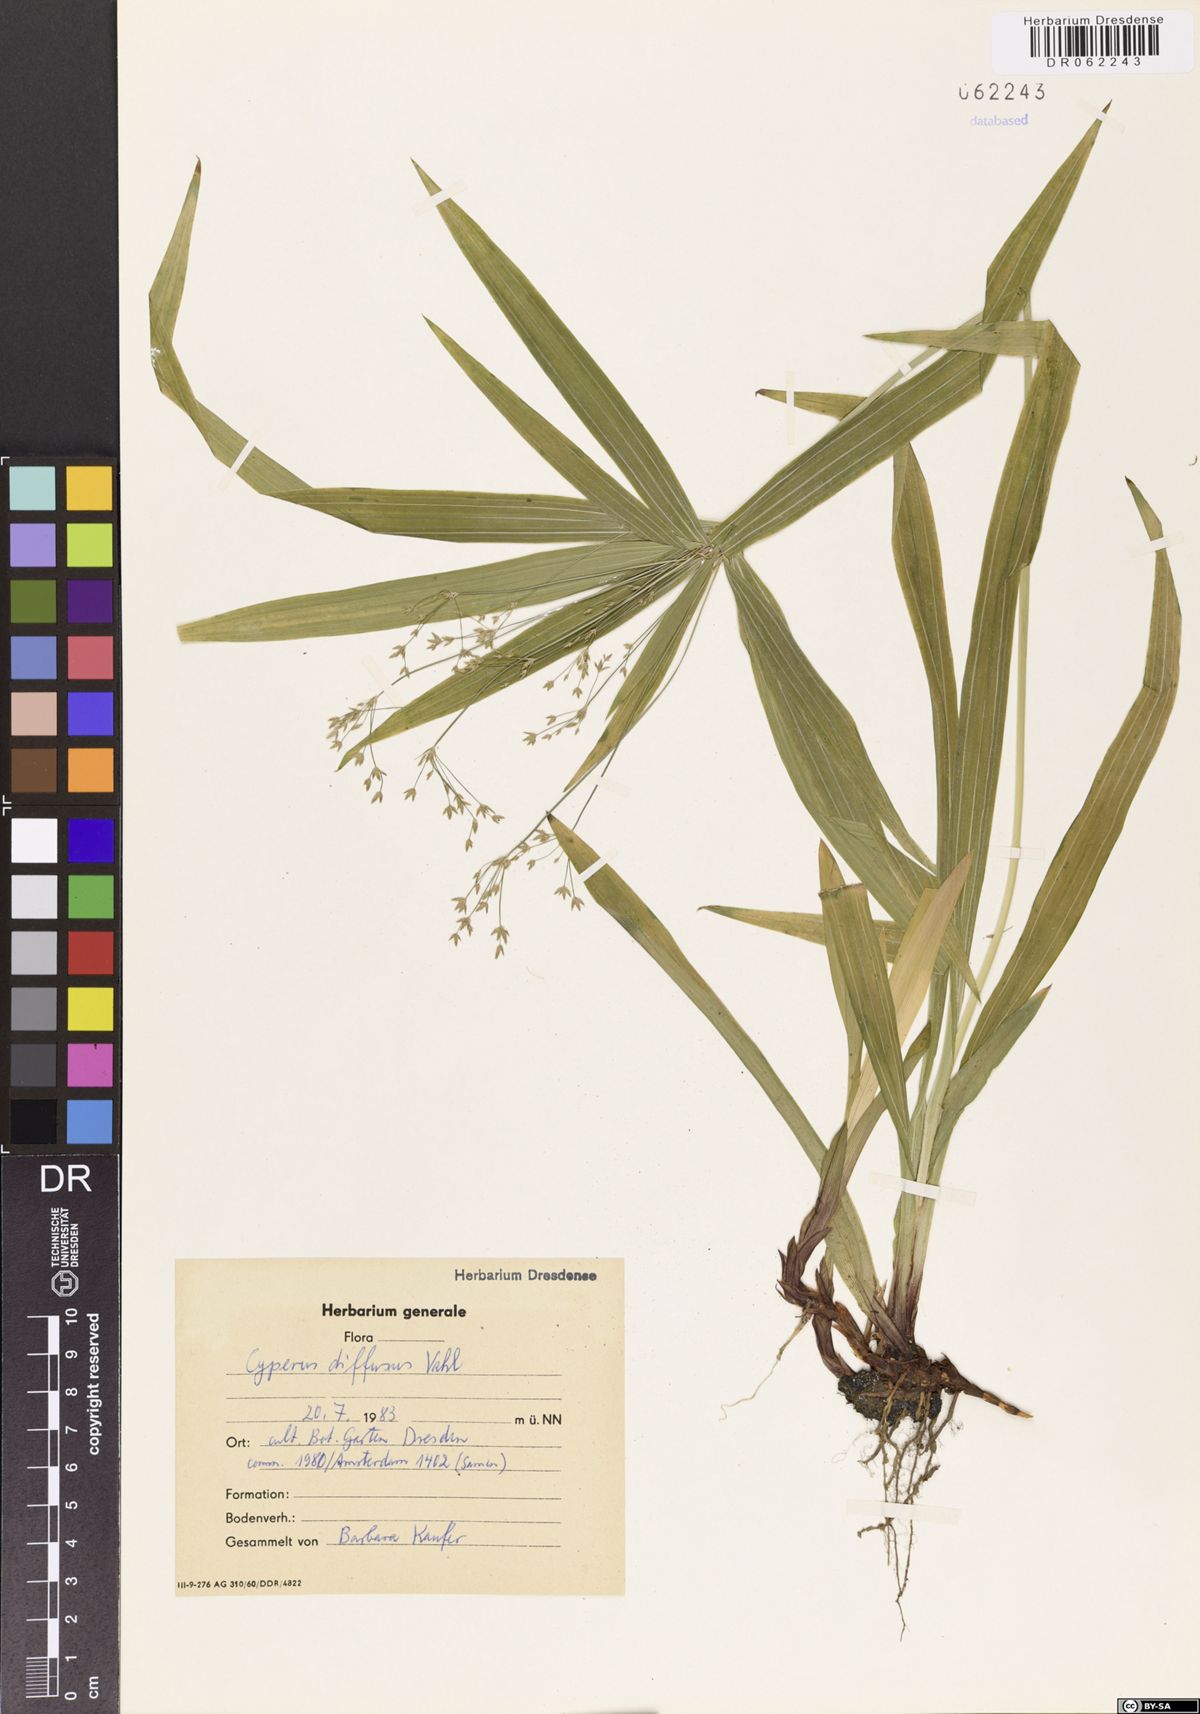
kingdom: Plantae
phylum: Tracheophyta
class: Liliopsida
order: Poales
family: Cyperaceae
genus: Cyperus
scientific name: Cyperus diffusus
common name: Dwarf umbrella grass
